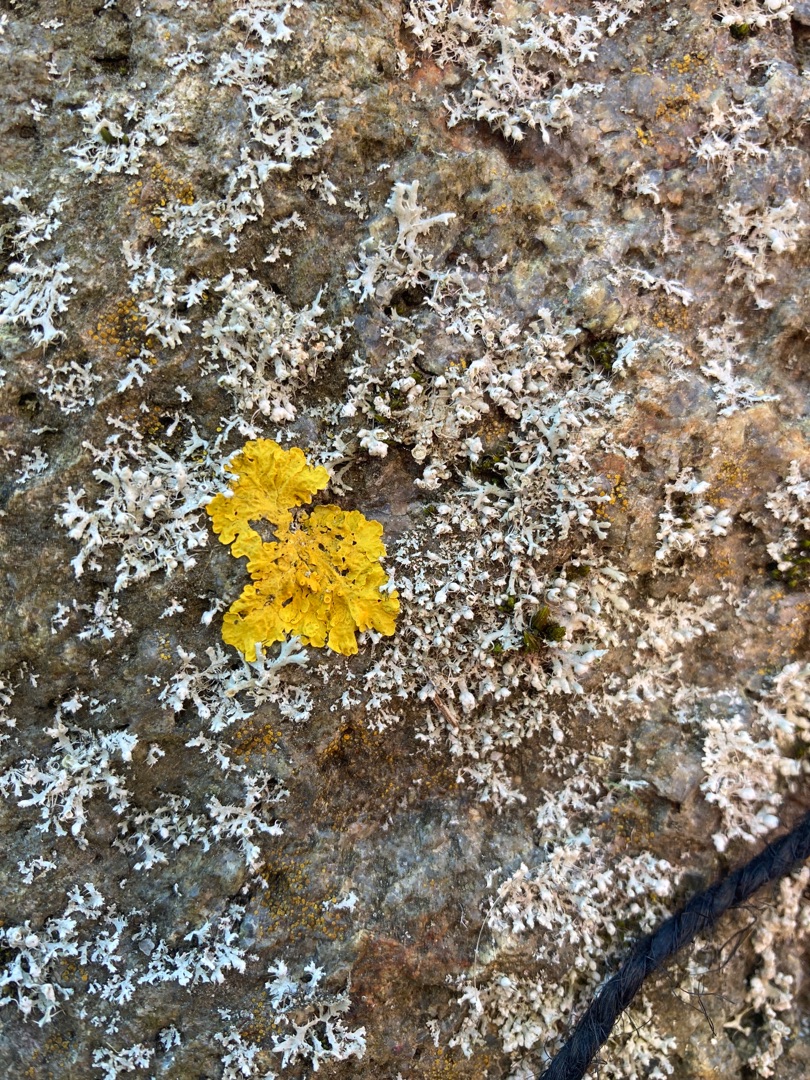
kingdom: Fungi
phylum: Ascomycota
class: Lecanoromycetes
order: Teloschistales
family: Teloschistaceae
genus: Xanthoria
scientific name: Xanthoria parietina
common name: Almindelig væggelav
